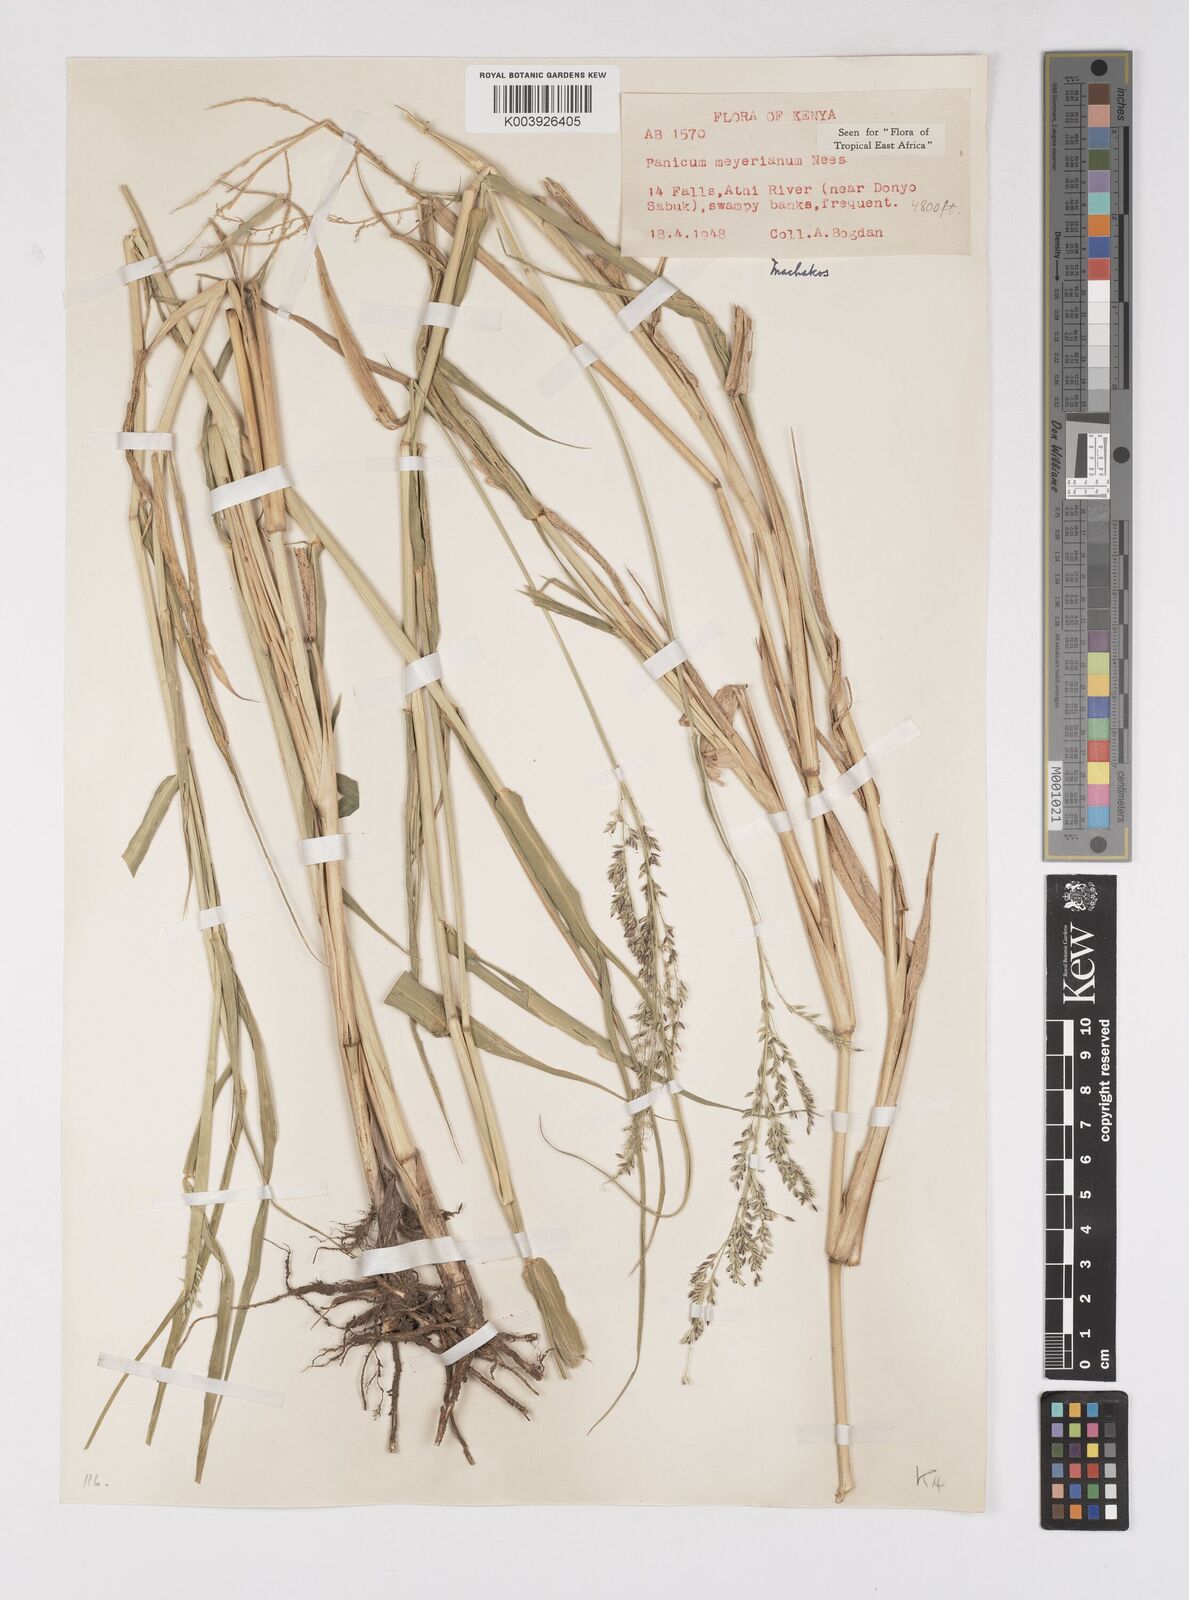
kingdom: Plantae
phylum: Tracheophyta
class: Liliopsida
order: Poales
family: Poaceae
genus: Eriochloa
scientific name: Eriochloa meyeriana
